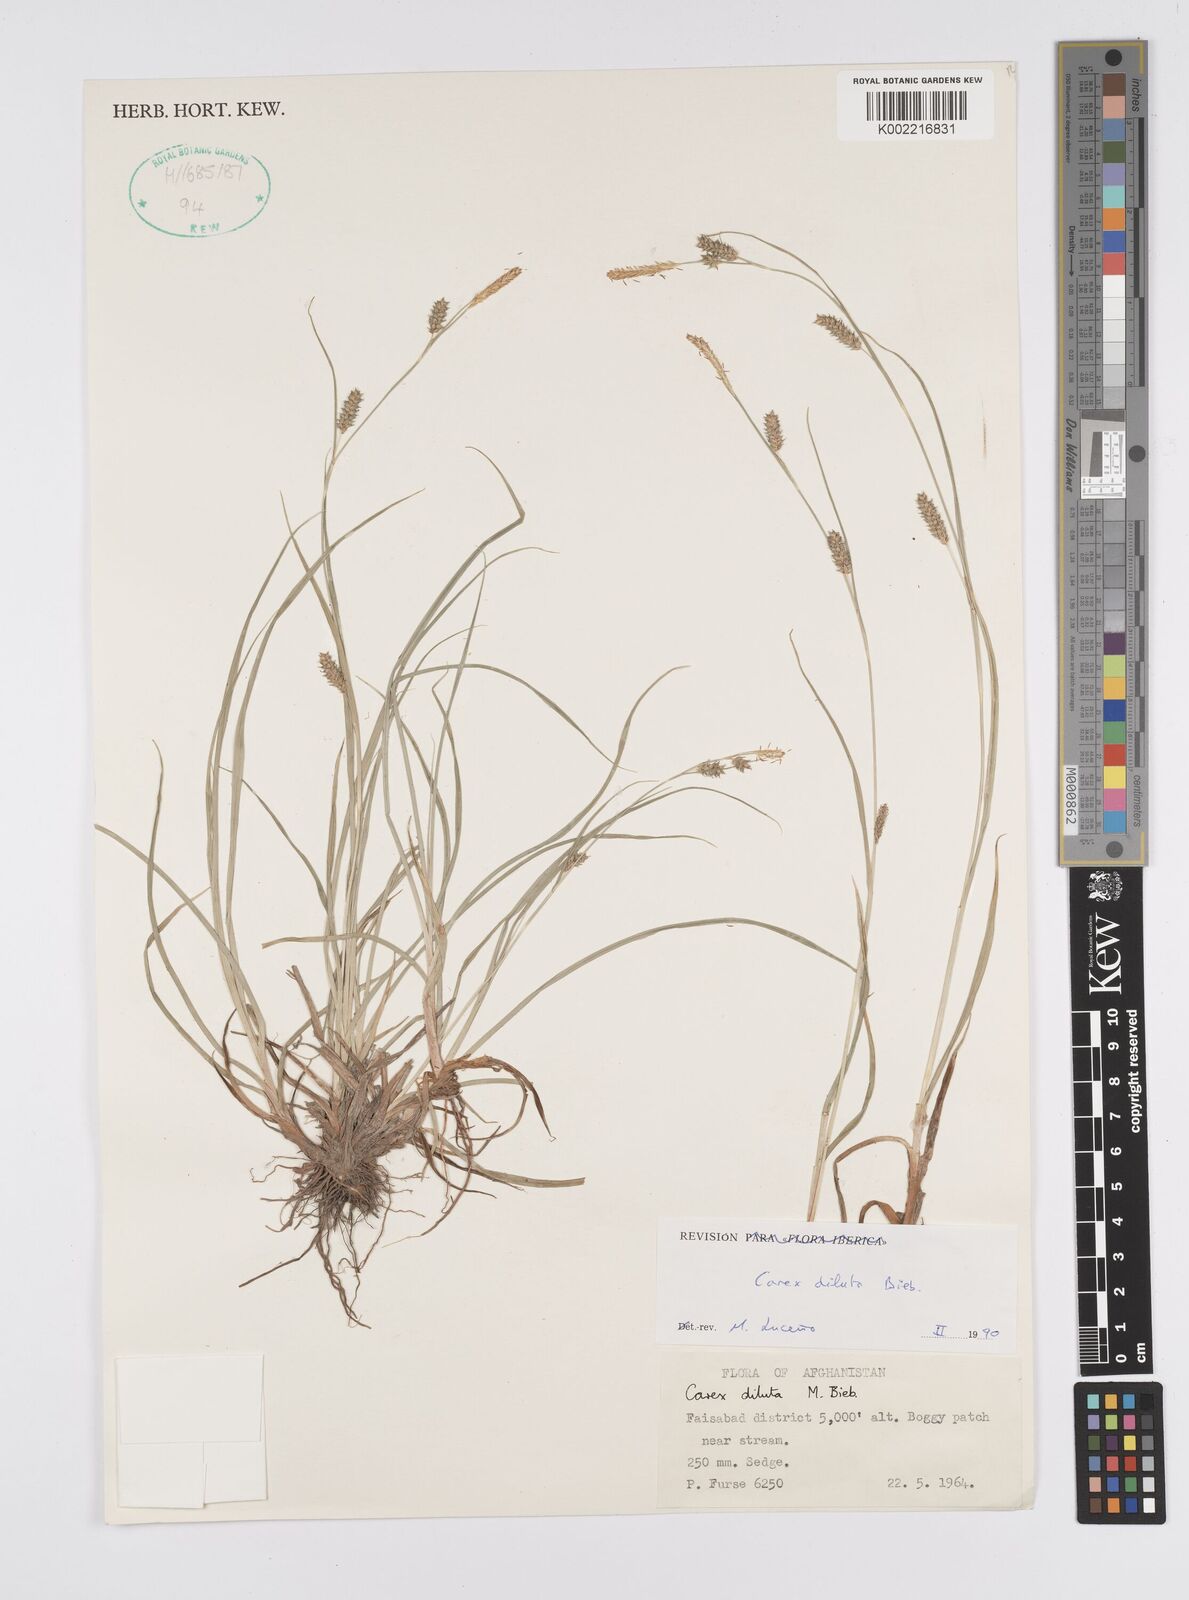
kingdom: Plantae
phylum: Tracheophyta
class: Liliopsida
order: Poales
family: Cyperaceae
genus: Carex
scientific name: Carex diluta
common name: Sedge
